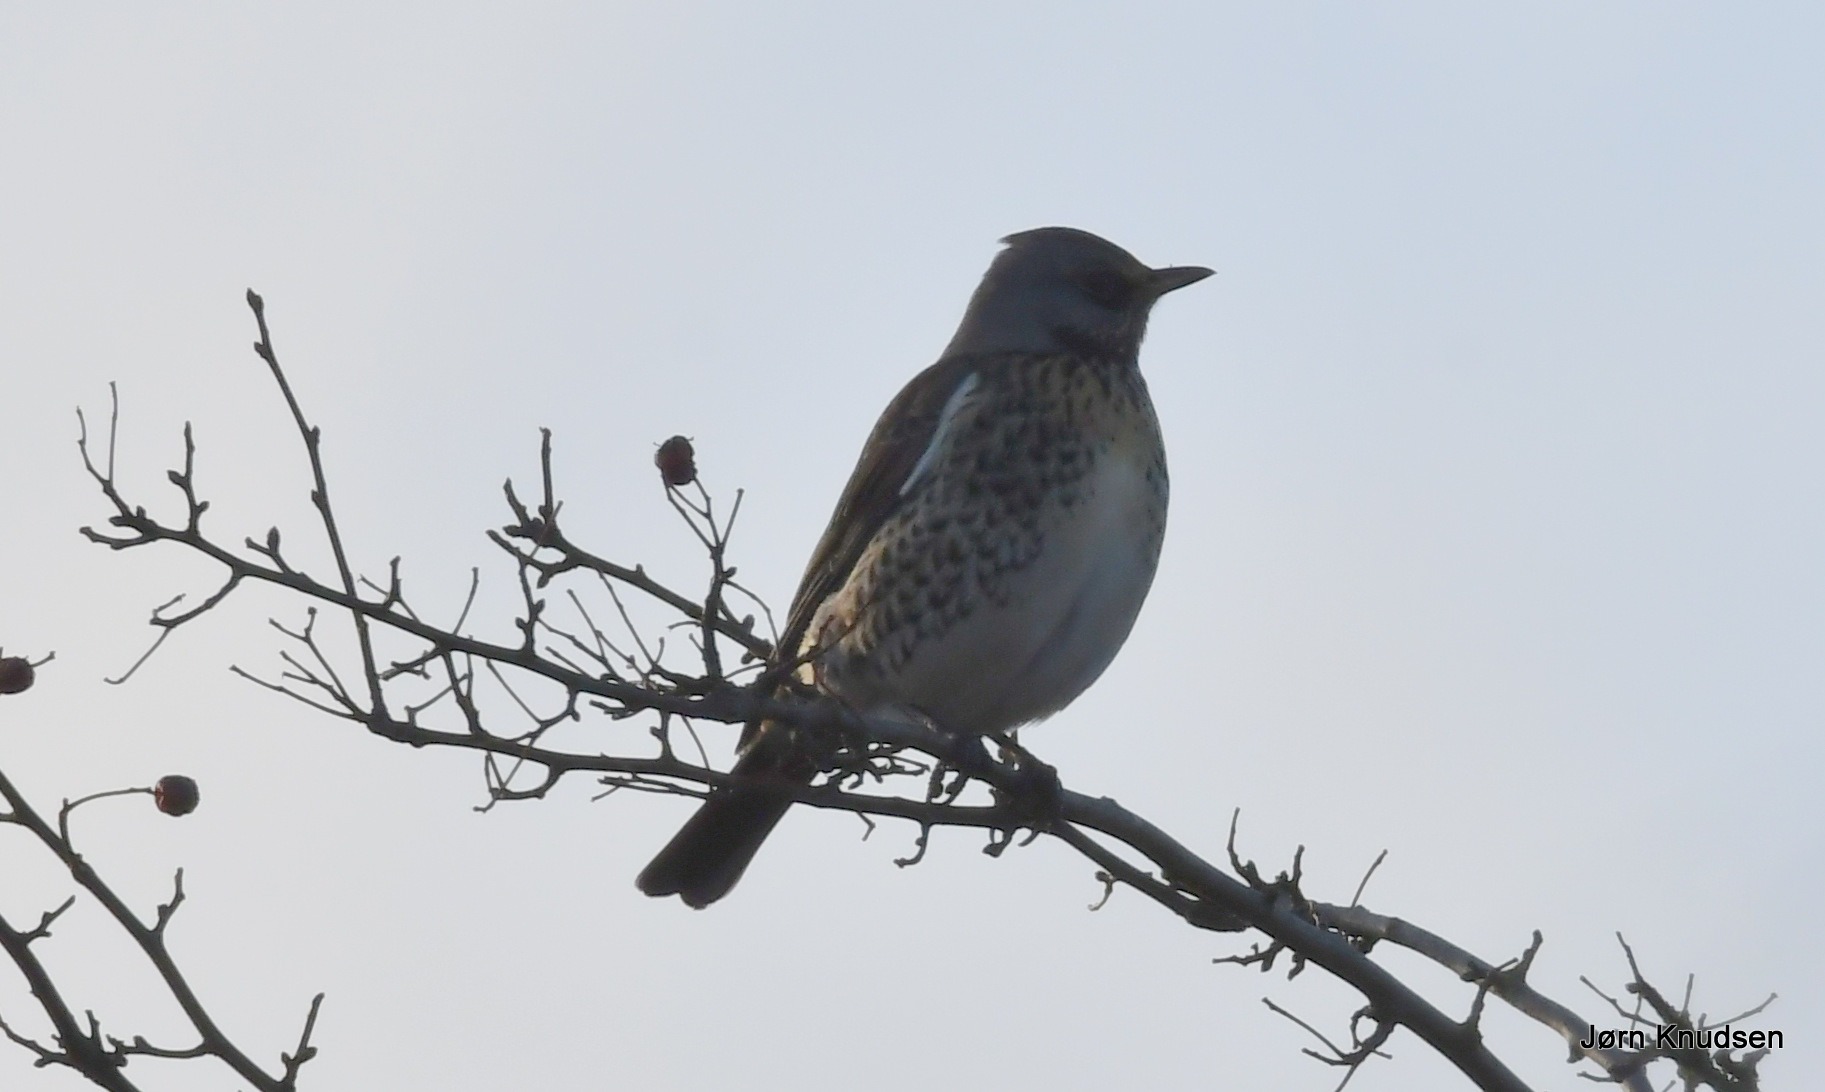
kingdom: Animalia
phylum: Chordata
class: Aves
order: Passeriformes
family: Turdidae
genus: Turdus
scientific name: Turdus pilaris
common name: Sjagger
